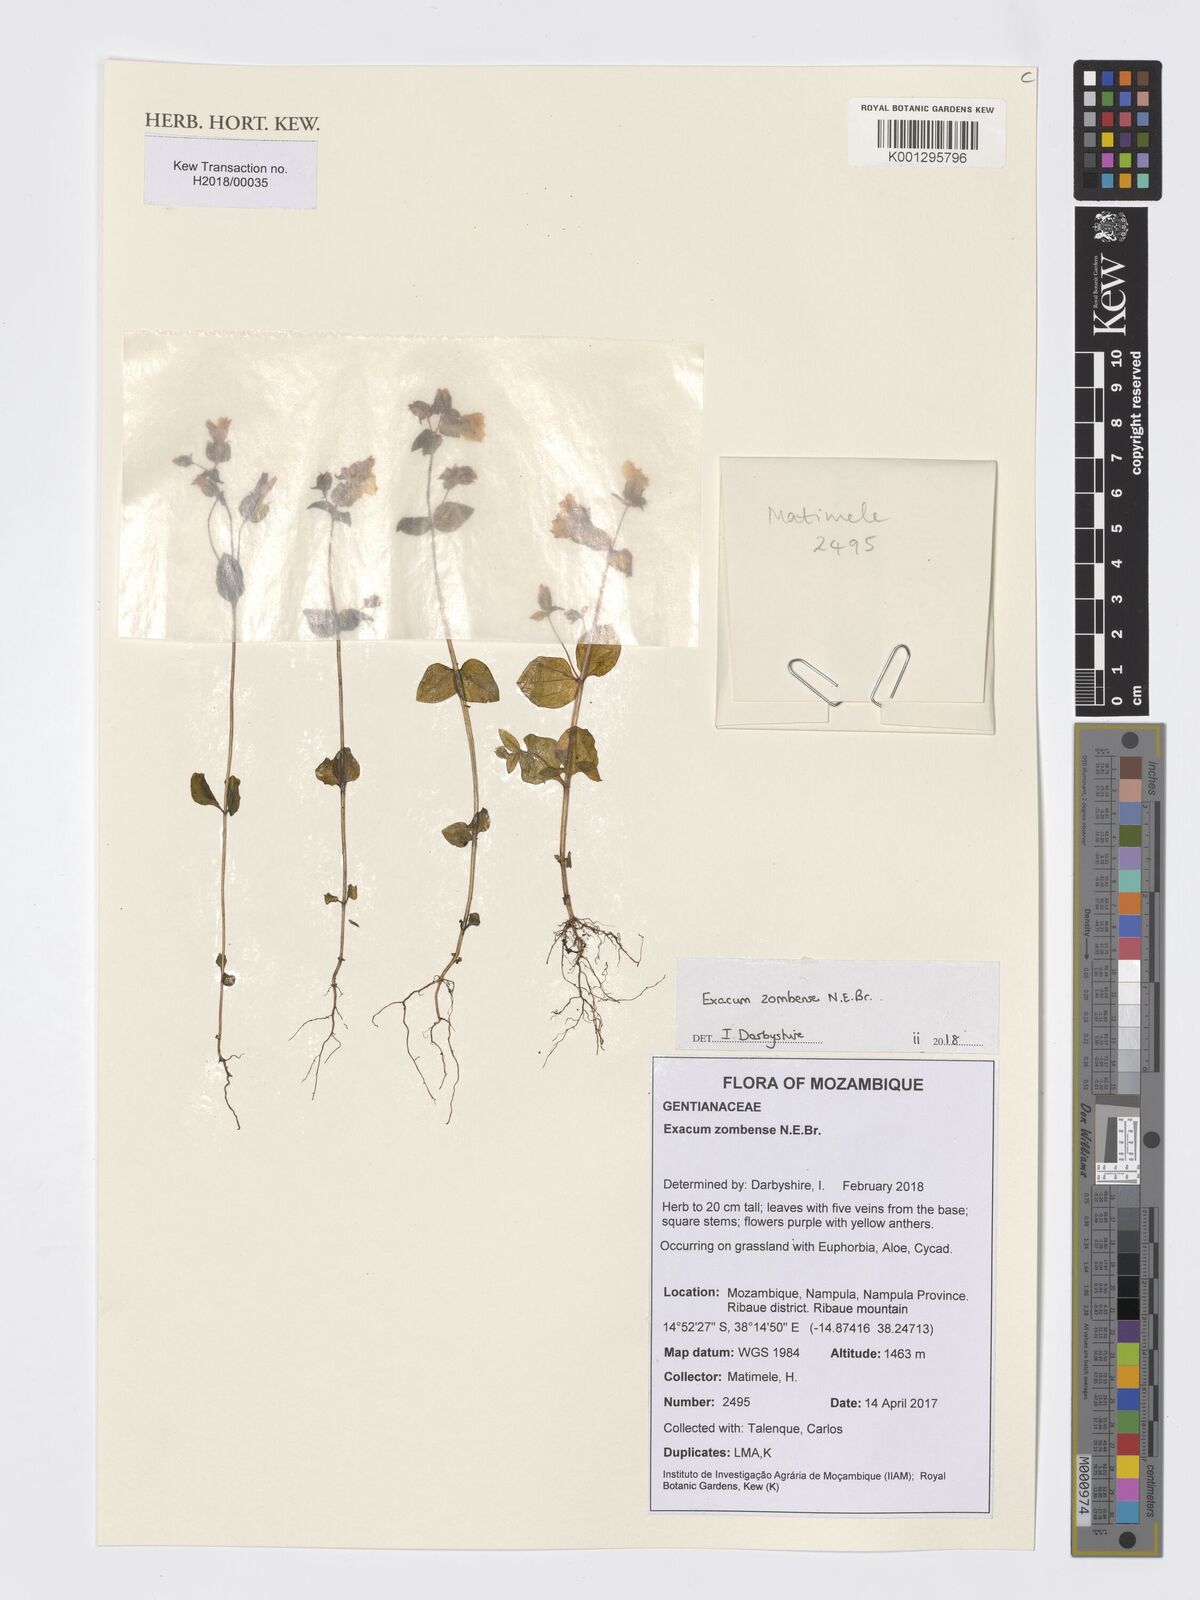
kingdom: Plantae
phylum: Tracheophyta
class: Magnoliopsida
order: Gentianales
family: Gentianaceae
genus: Exacum
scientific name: Exacum zombense
